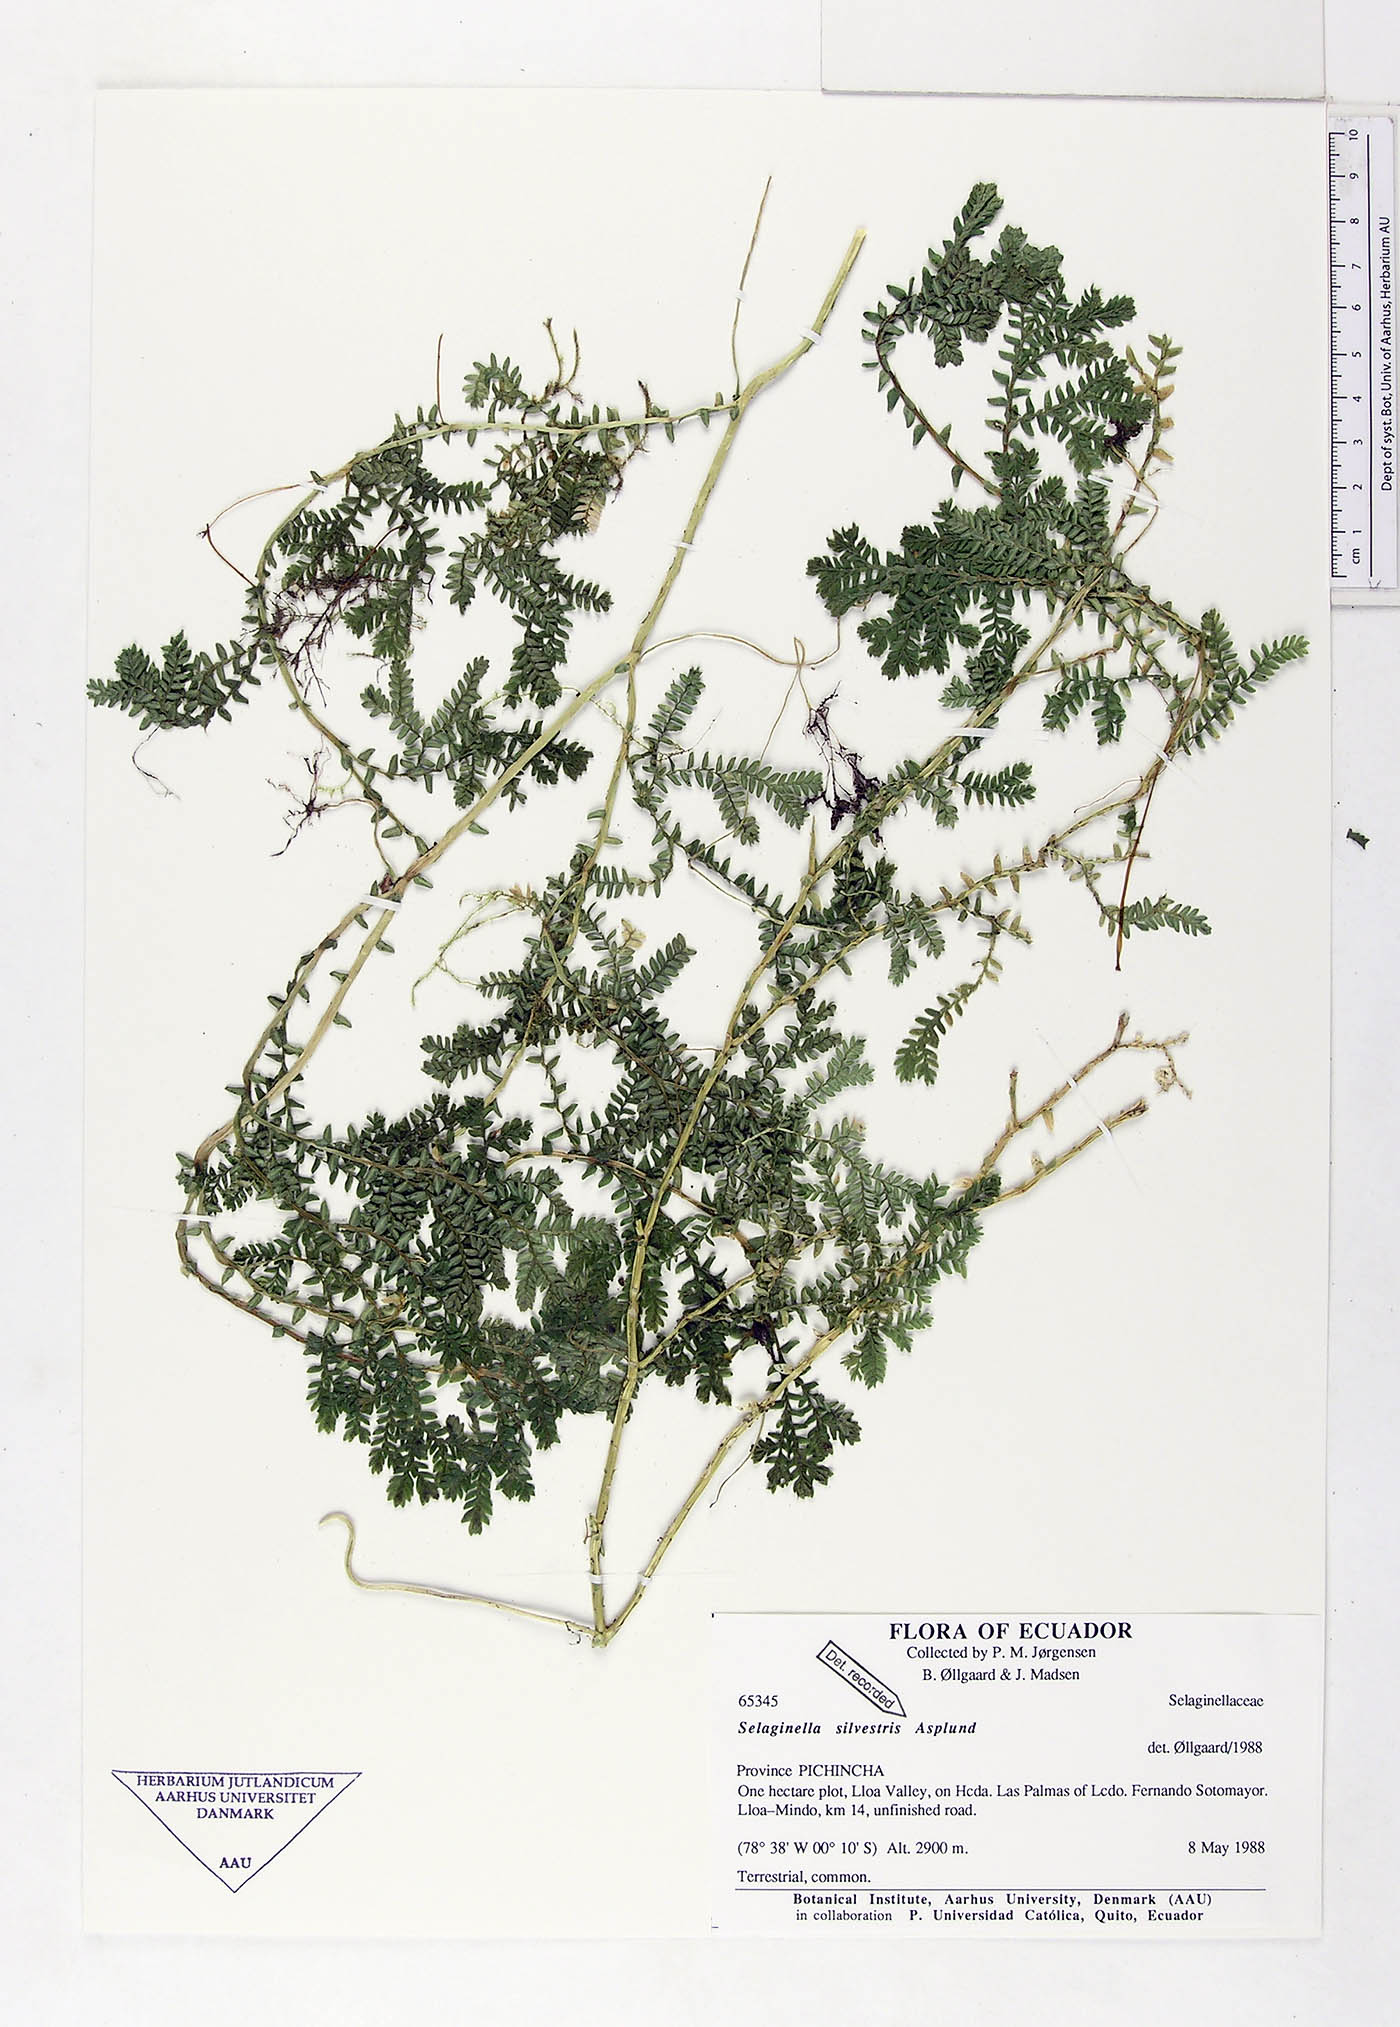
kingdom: Plantae
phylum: Tracheophyta
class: Lycopodiopsida
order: Selaginellales
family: Selaginellaceae
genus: Selaginella
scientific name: Selaginella silvestris
